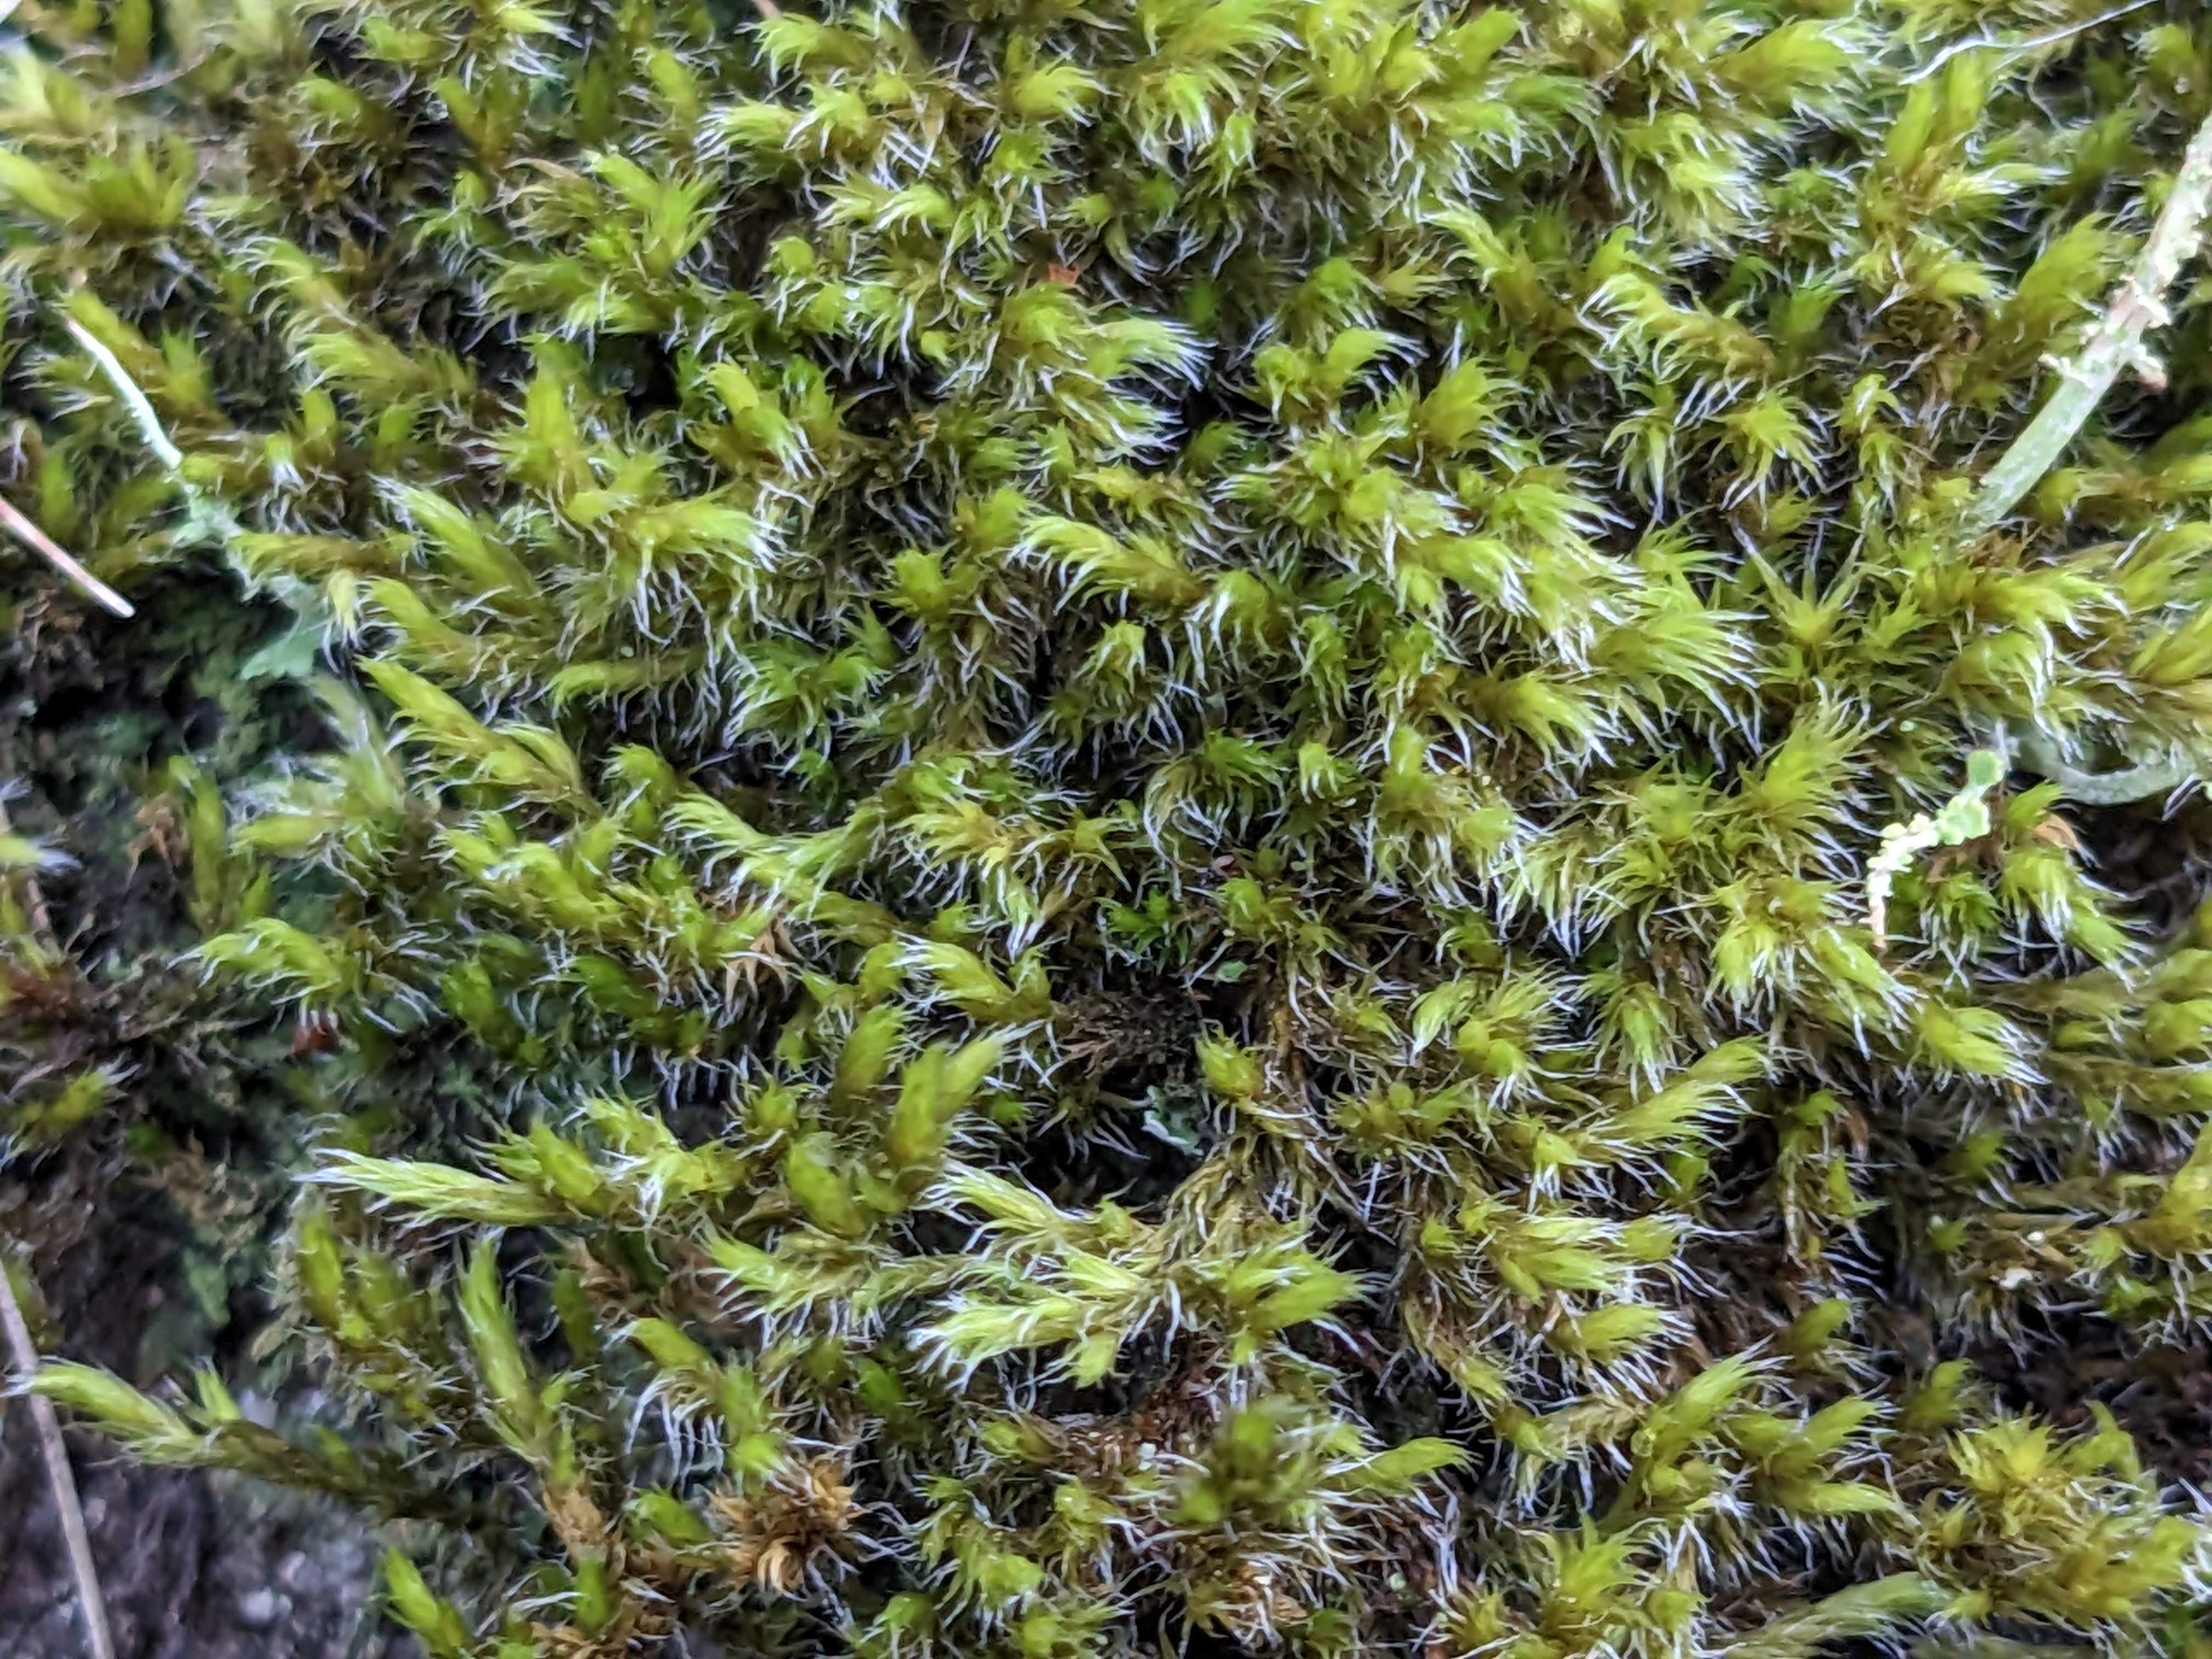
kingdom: Plantae
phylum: Bryophyta
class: Bryopsida
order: Grimmiales
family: Grimmiaceae
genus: Bucklandiella
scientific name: Bucklandiella affinis
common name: Spinkel børstemos
